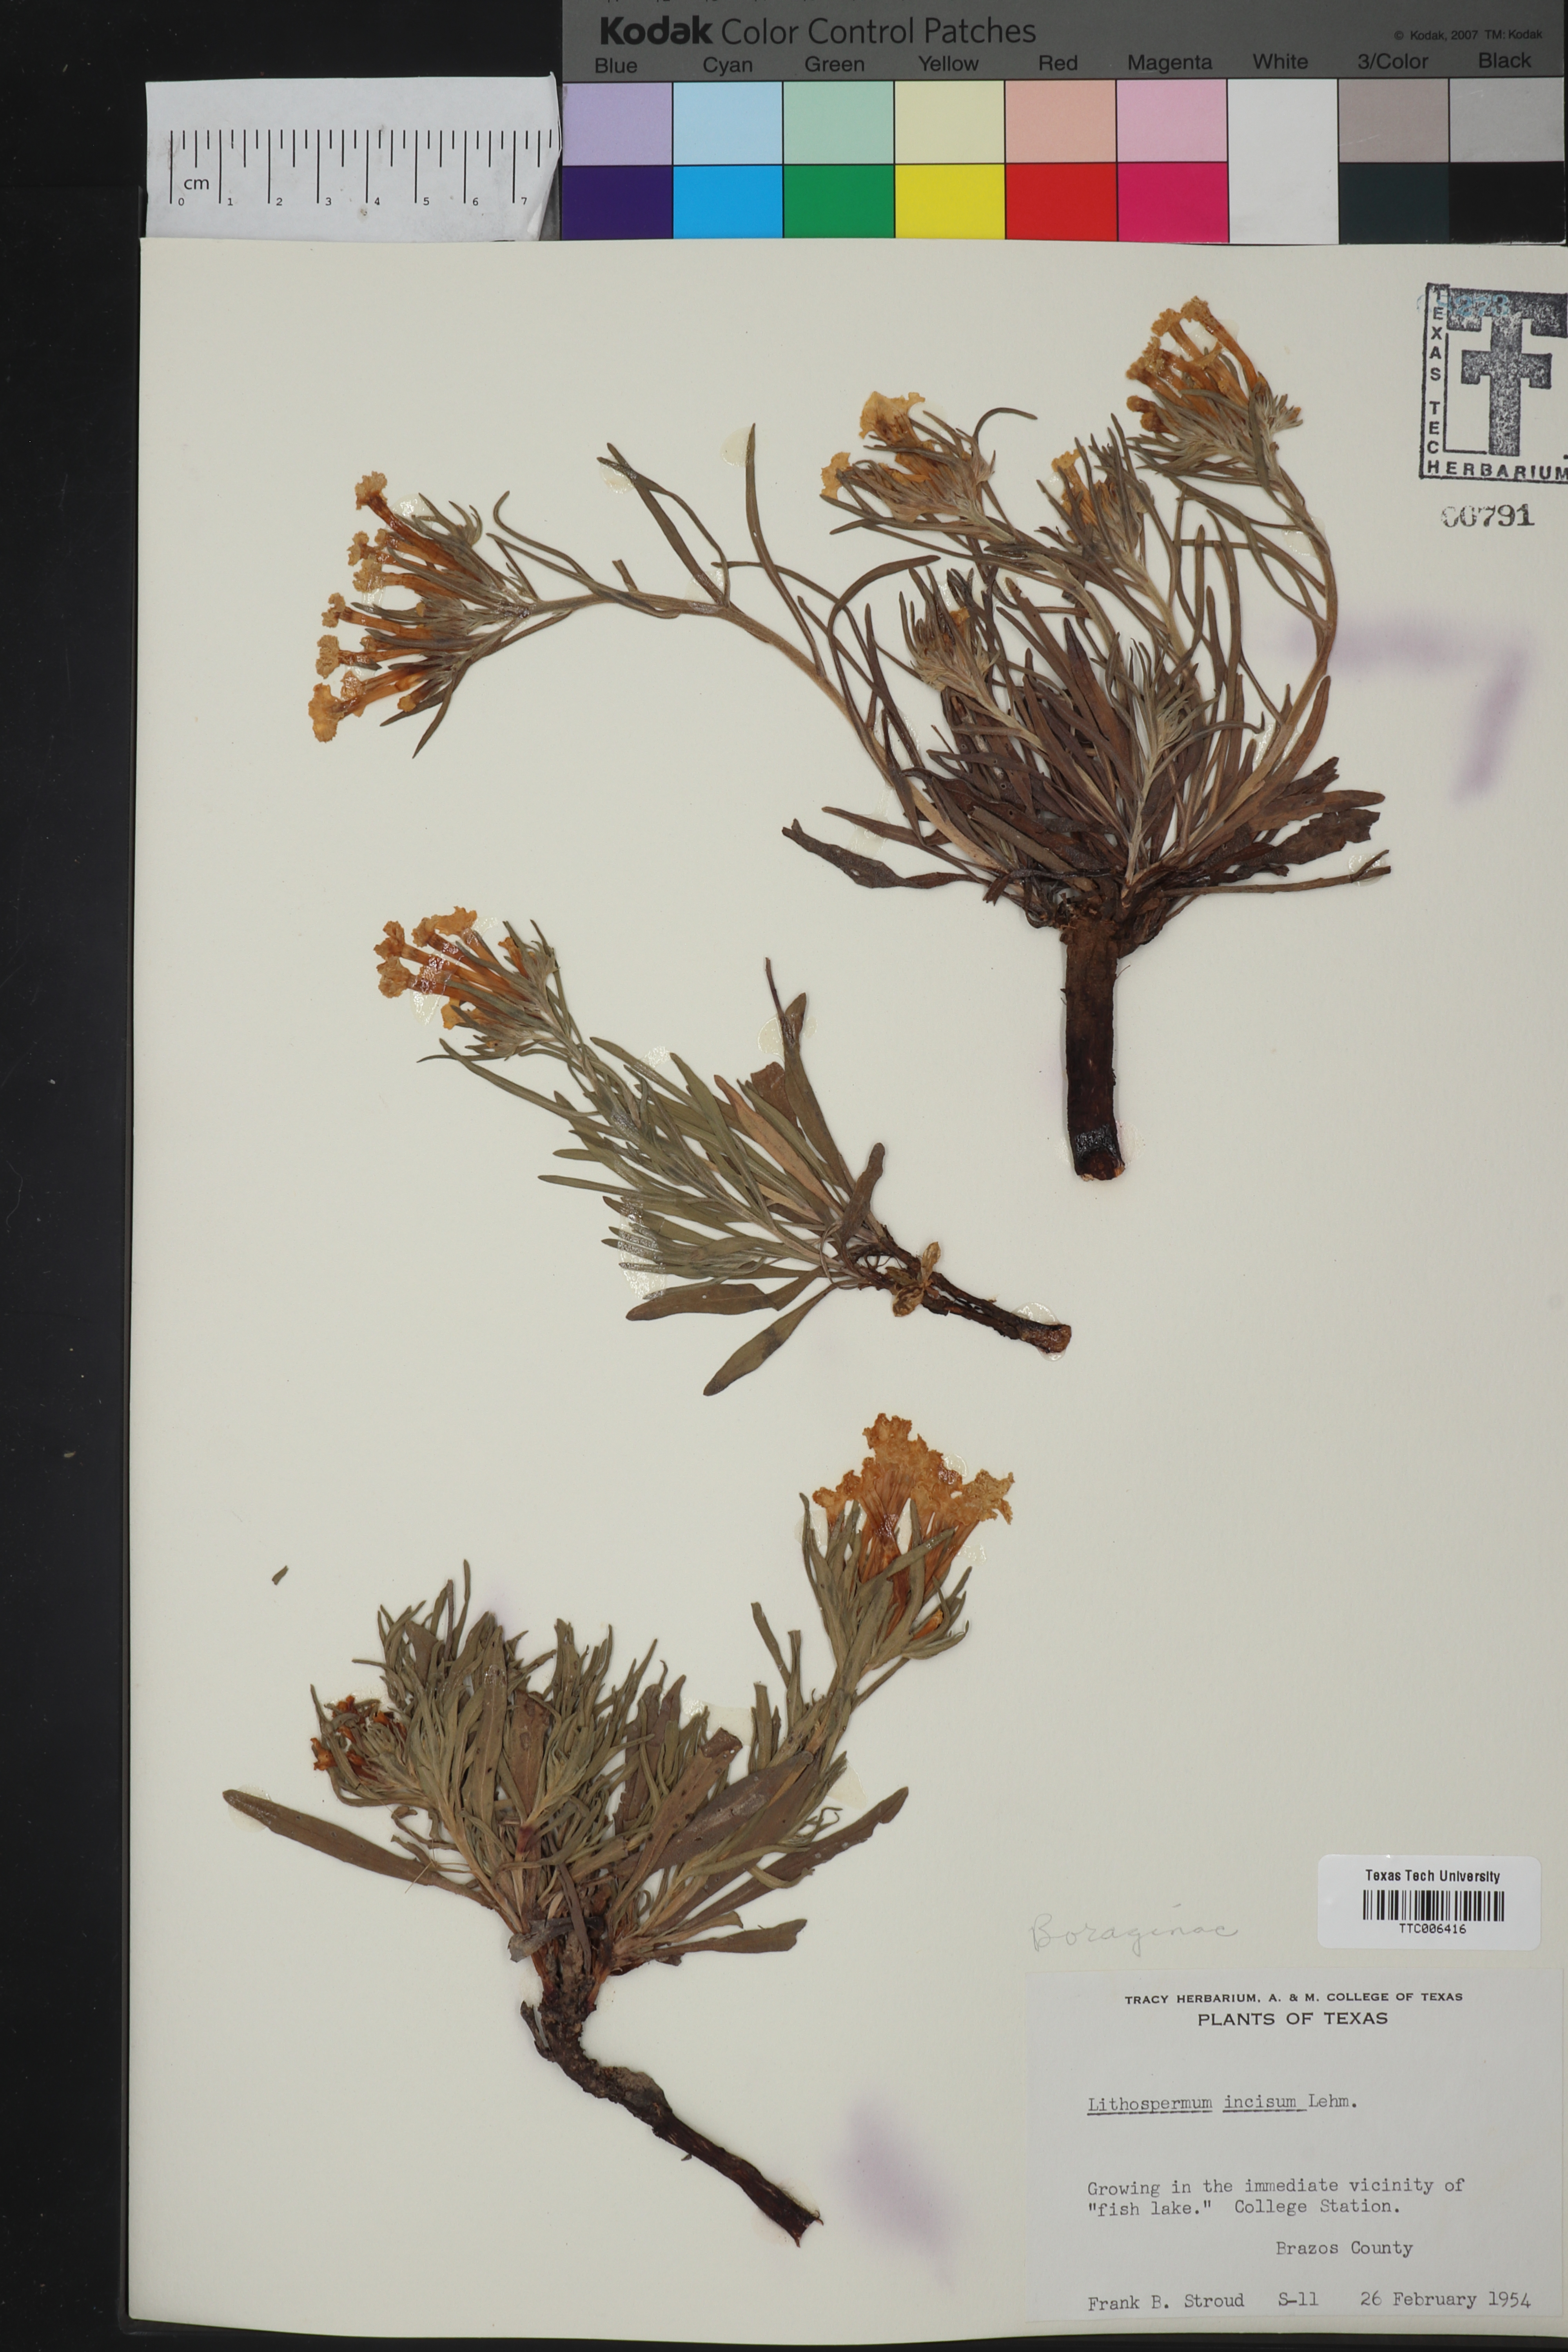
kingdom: Plantae
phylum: Tracheophyta
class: Magnoliopsida
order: Boraginales
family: Boraginaceae
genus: Lithospermum
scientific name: Lithospermum incisum
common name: Fringed gromwell
